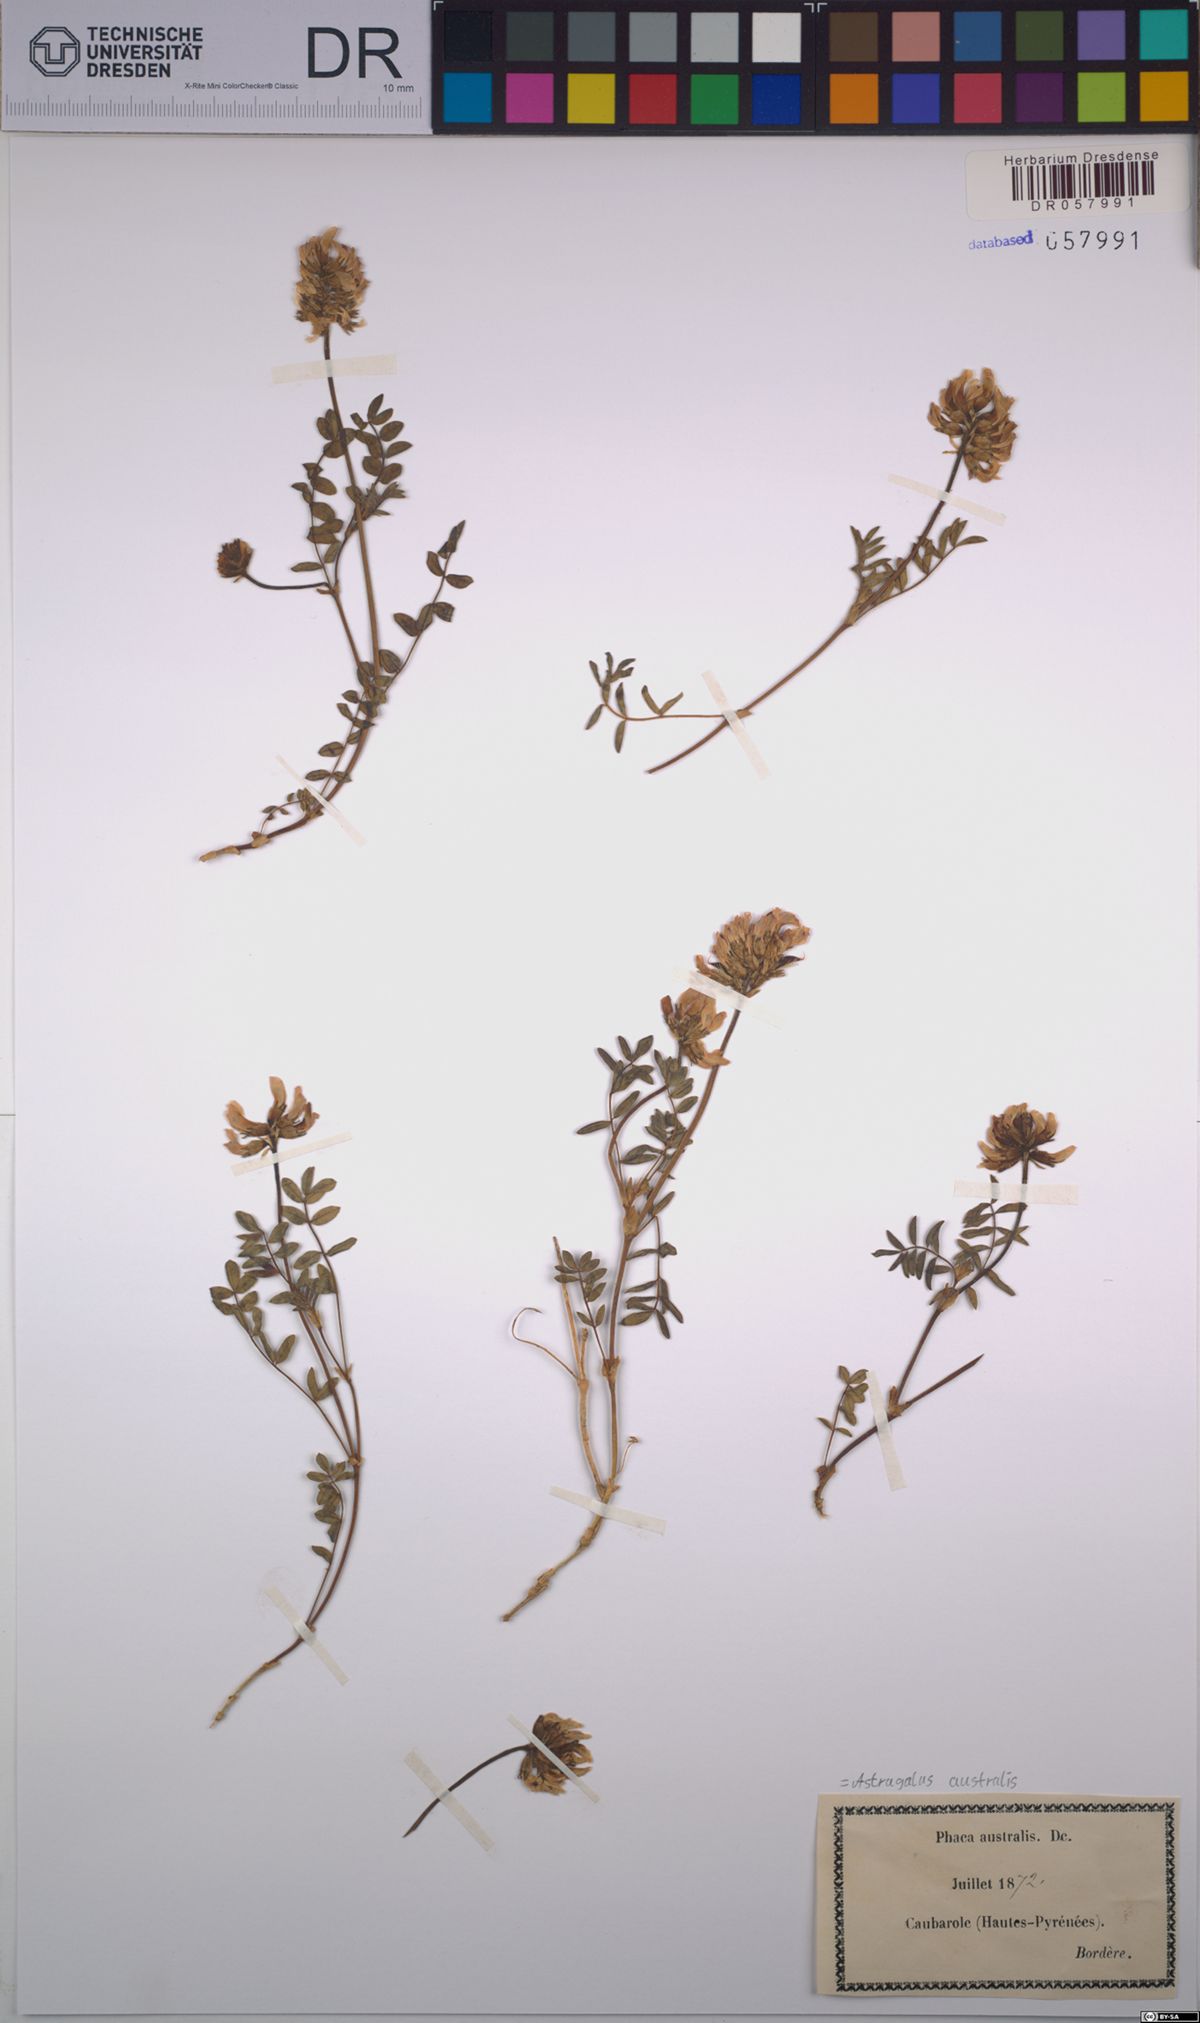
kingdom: Plantae
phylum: Tracheophyta
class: Magnoliopsida
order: Fabales
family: Fabaceae
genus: Astragalus
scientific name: Astragalus australis
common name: Indian milk-vetch
